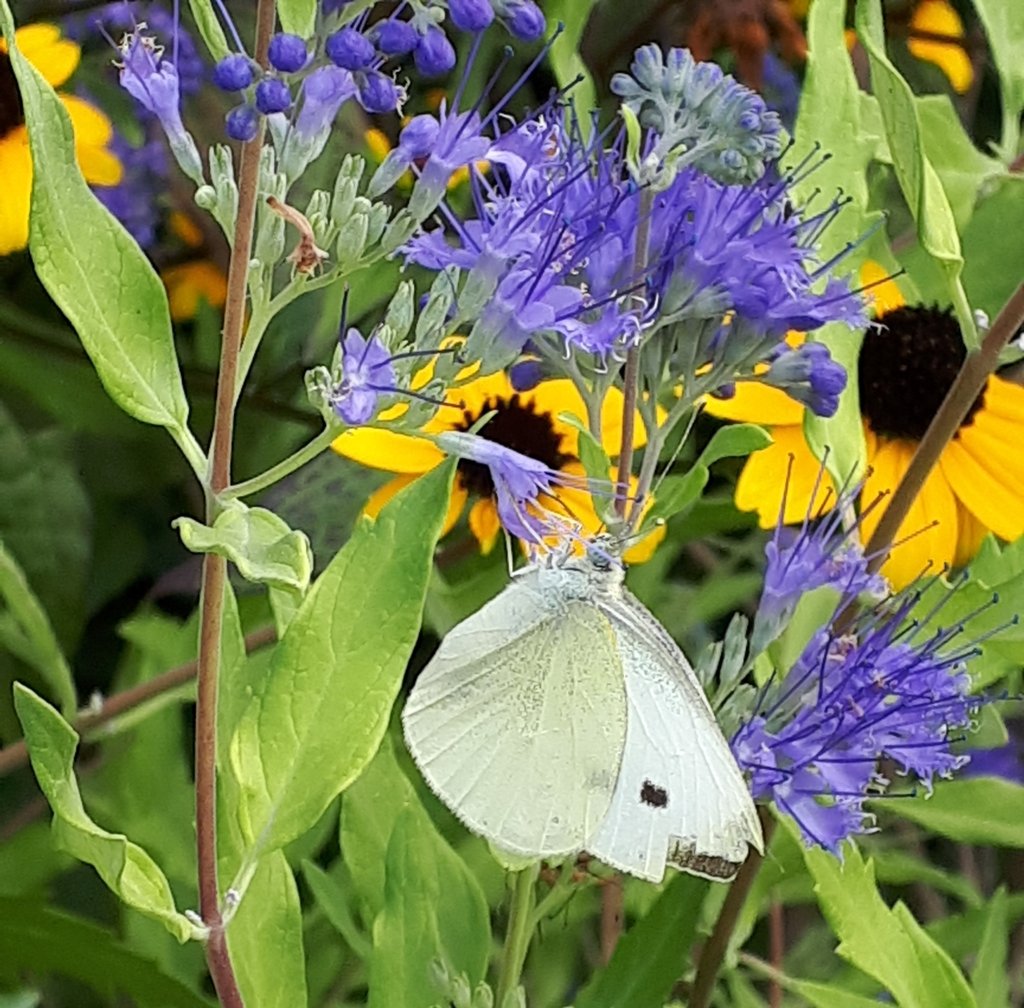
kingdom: Animalia
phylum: Arthropoda
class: Insecta
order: Lepidoptera
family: Pieridae
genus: Pieris
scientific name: Pieris rapae
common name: Cabbage White
